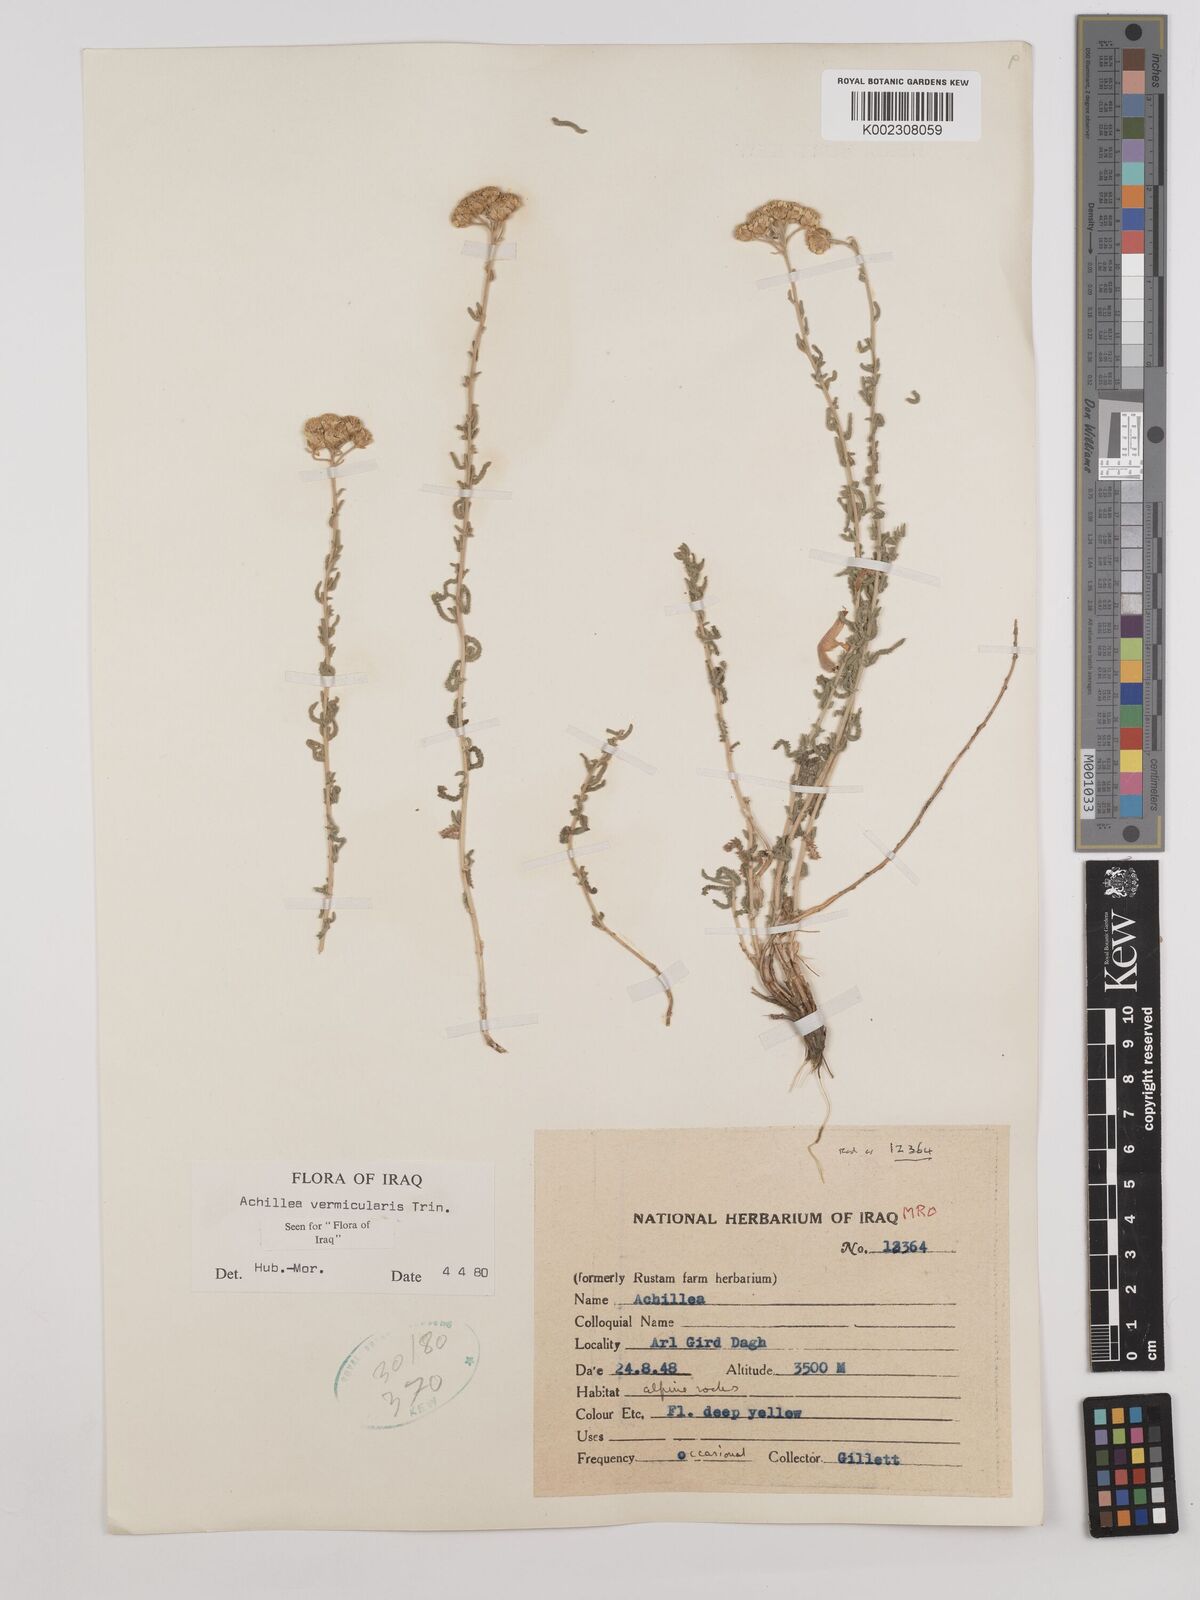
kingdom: Plantae
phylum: Tracheophyta
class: Magnoliopsida
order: Asterales
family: Asteraceae
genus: Achillea
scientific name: Achillea vermicularis
